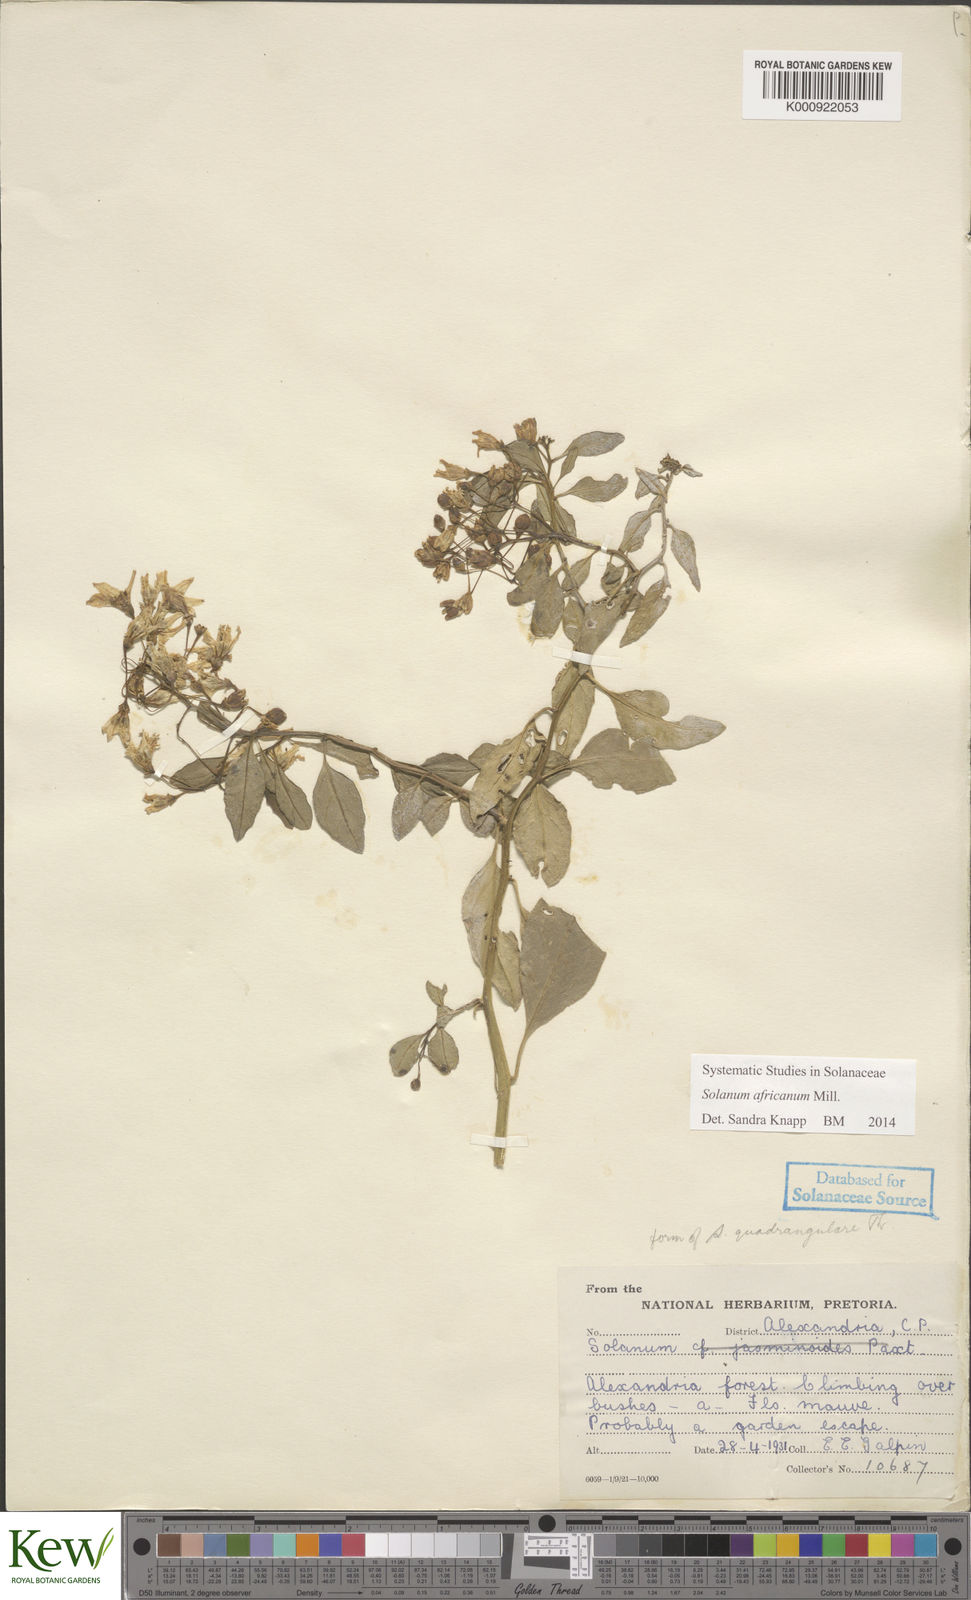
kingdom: Plantae
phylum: Tracheophyta
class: Magnoliopsida
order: Solanales
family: Solanaceae
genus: Solanum
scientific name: Solanum africanum
